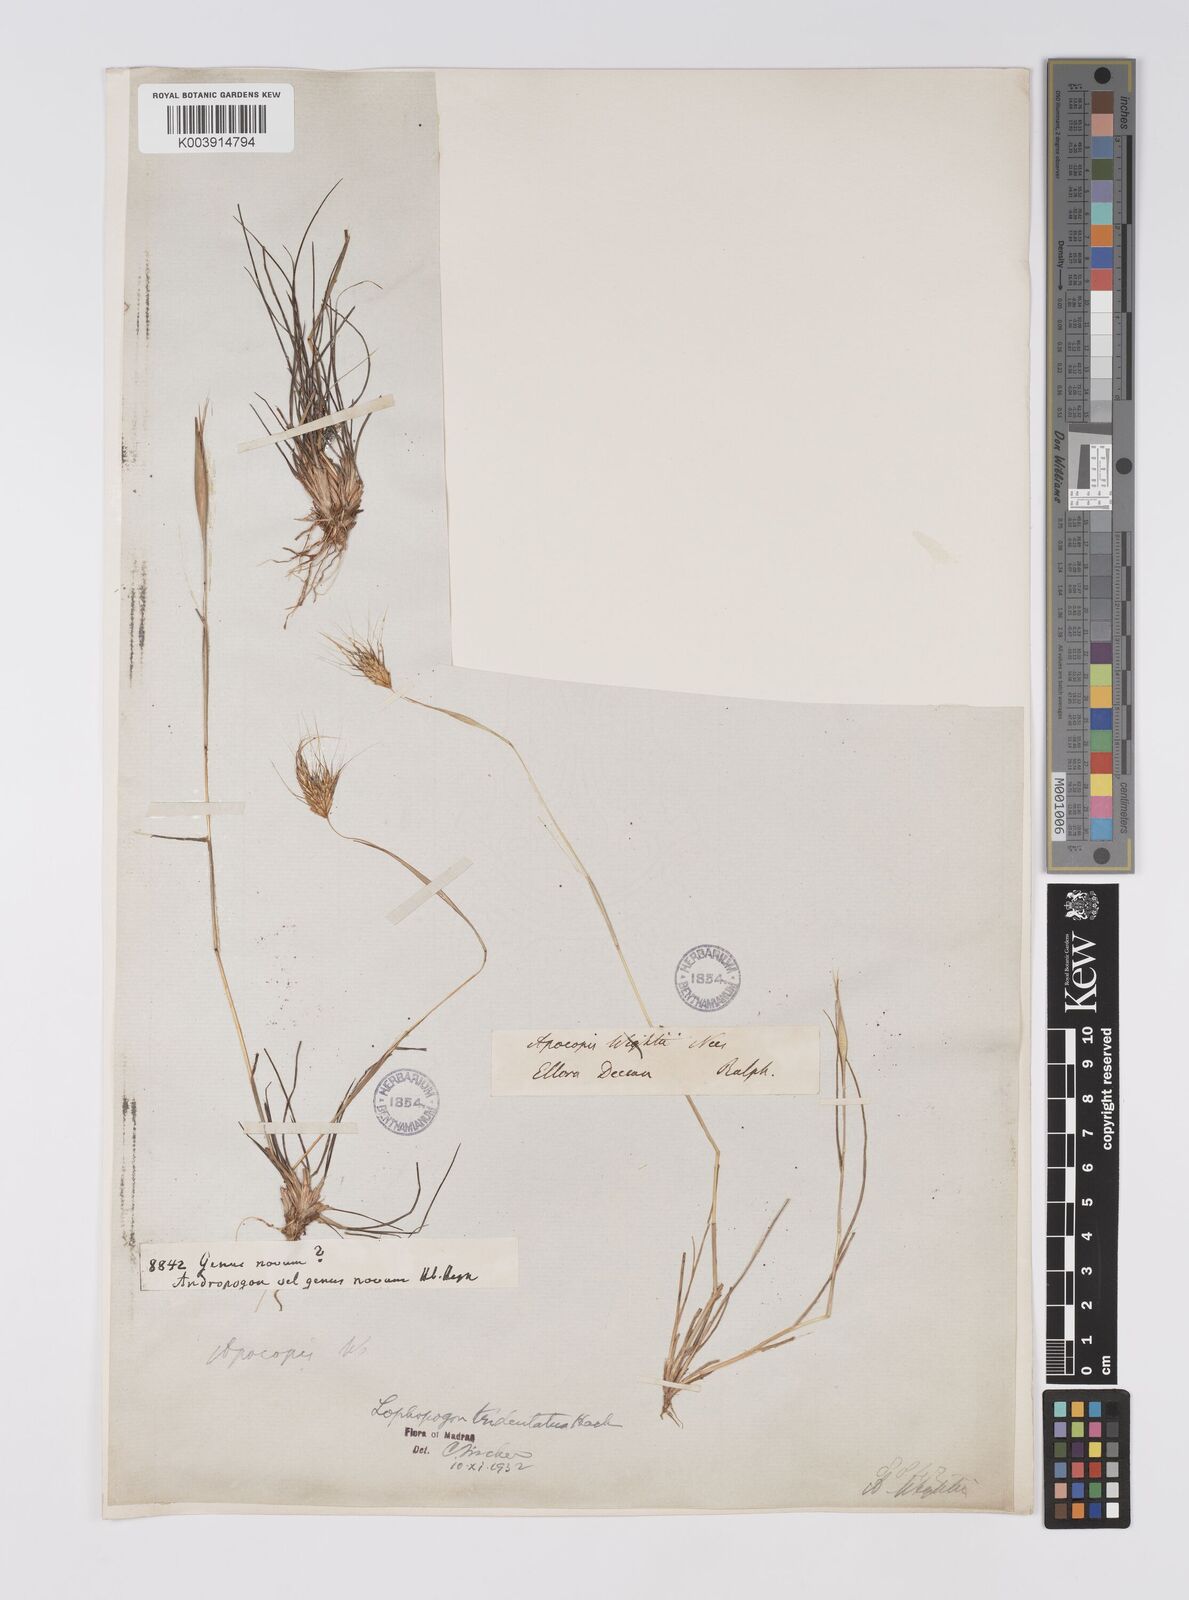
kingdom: Plantae
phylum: Tracheophyta
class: Liliopsida
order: Poales
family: Poaceae
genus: Lophopogon
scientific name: Lophopogon tridentatus
